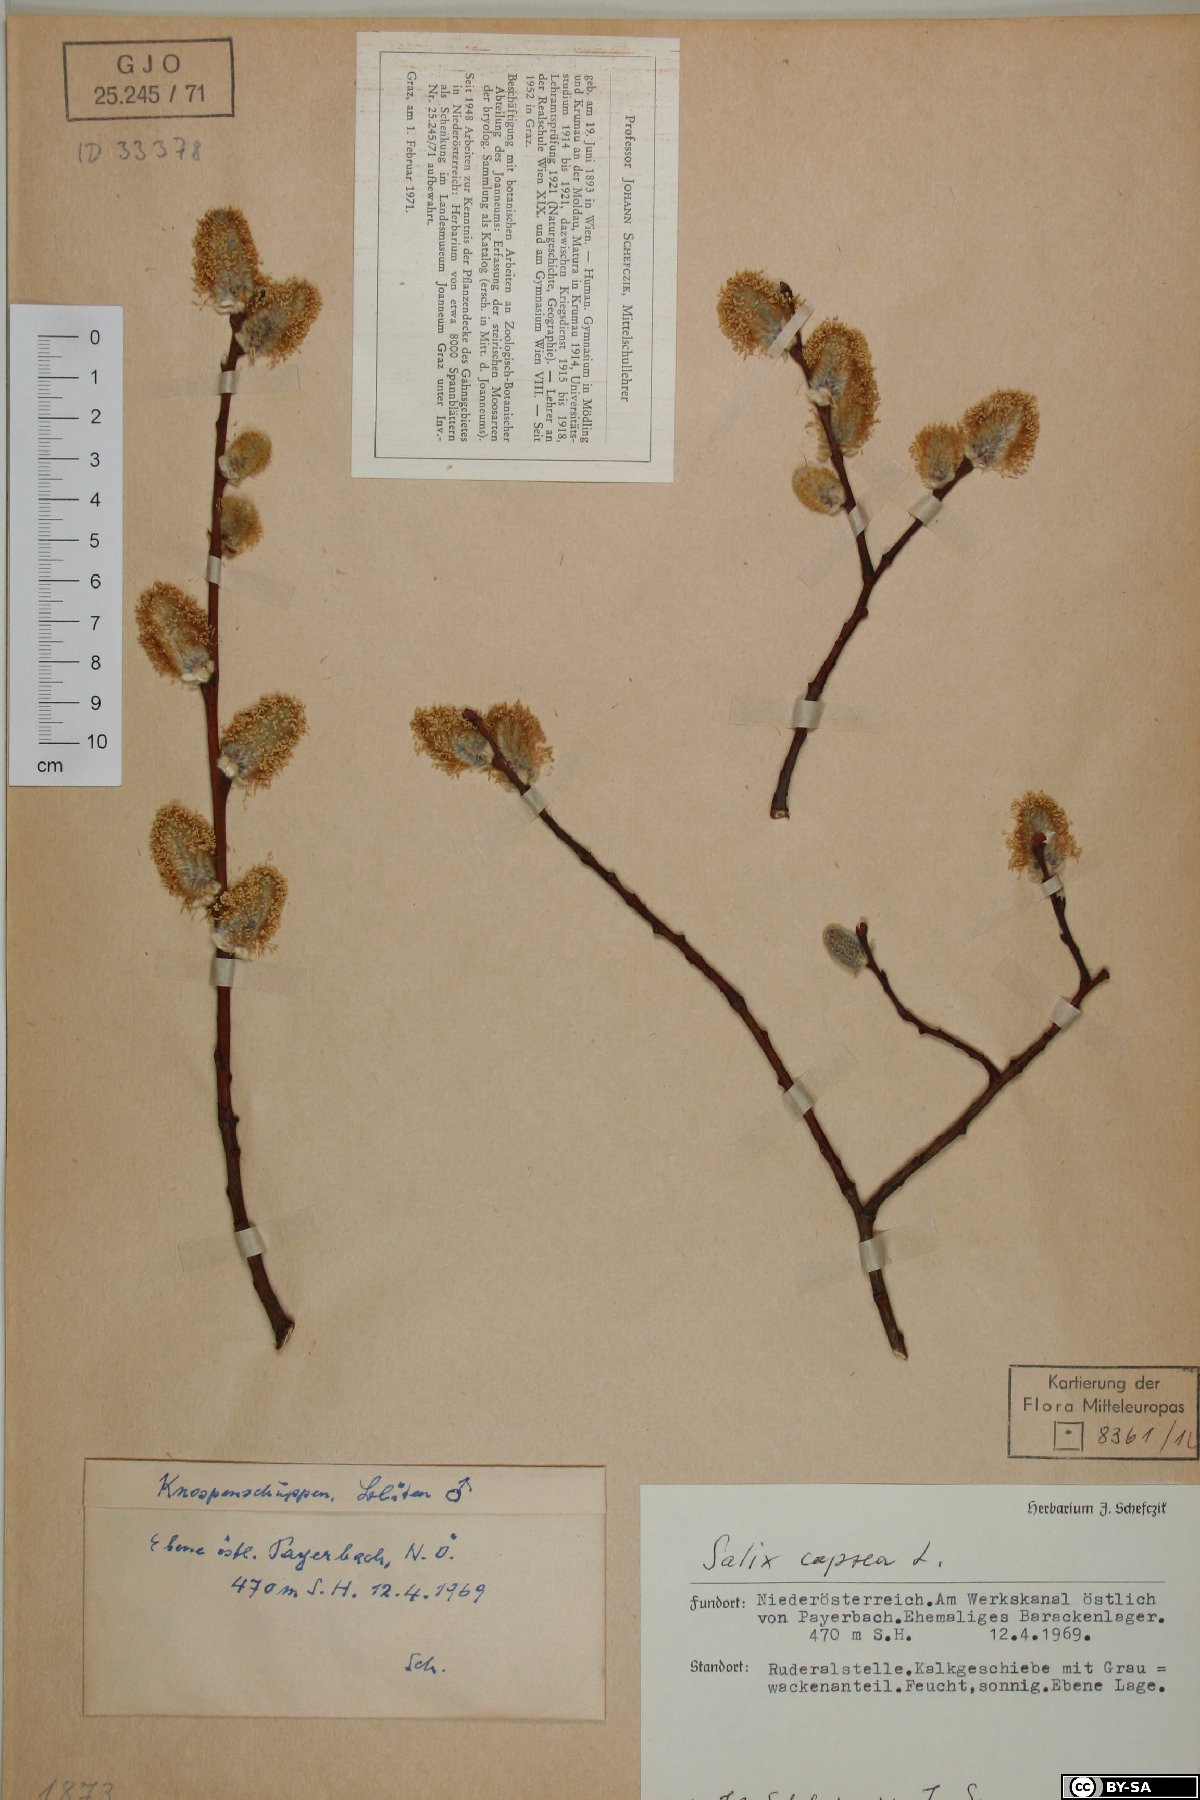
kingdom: Plantae
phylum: Tracheophyta
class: Magnoliopsida
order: Malpighiales
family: Salicaceae
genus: Salix
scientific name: Salix caprea
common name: Goat willow
